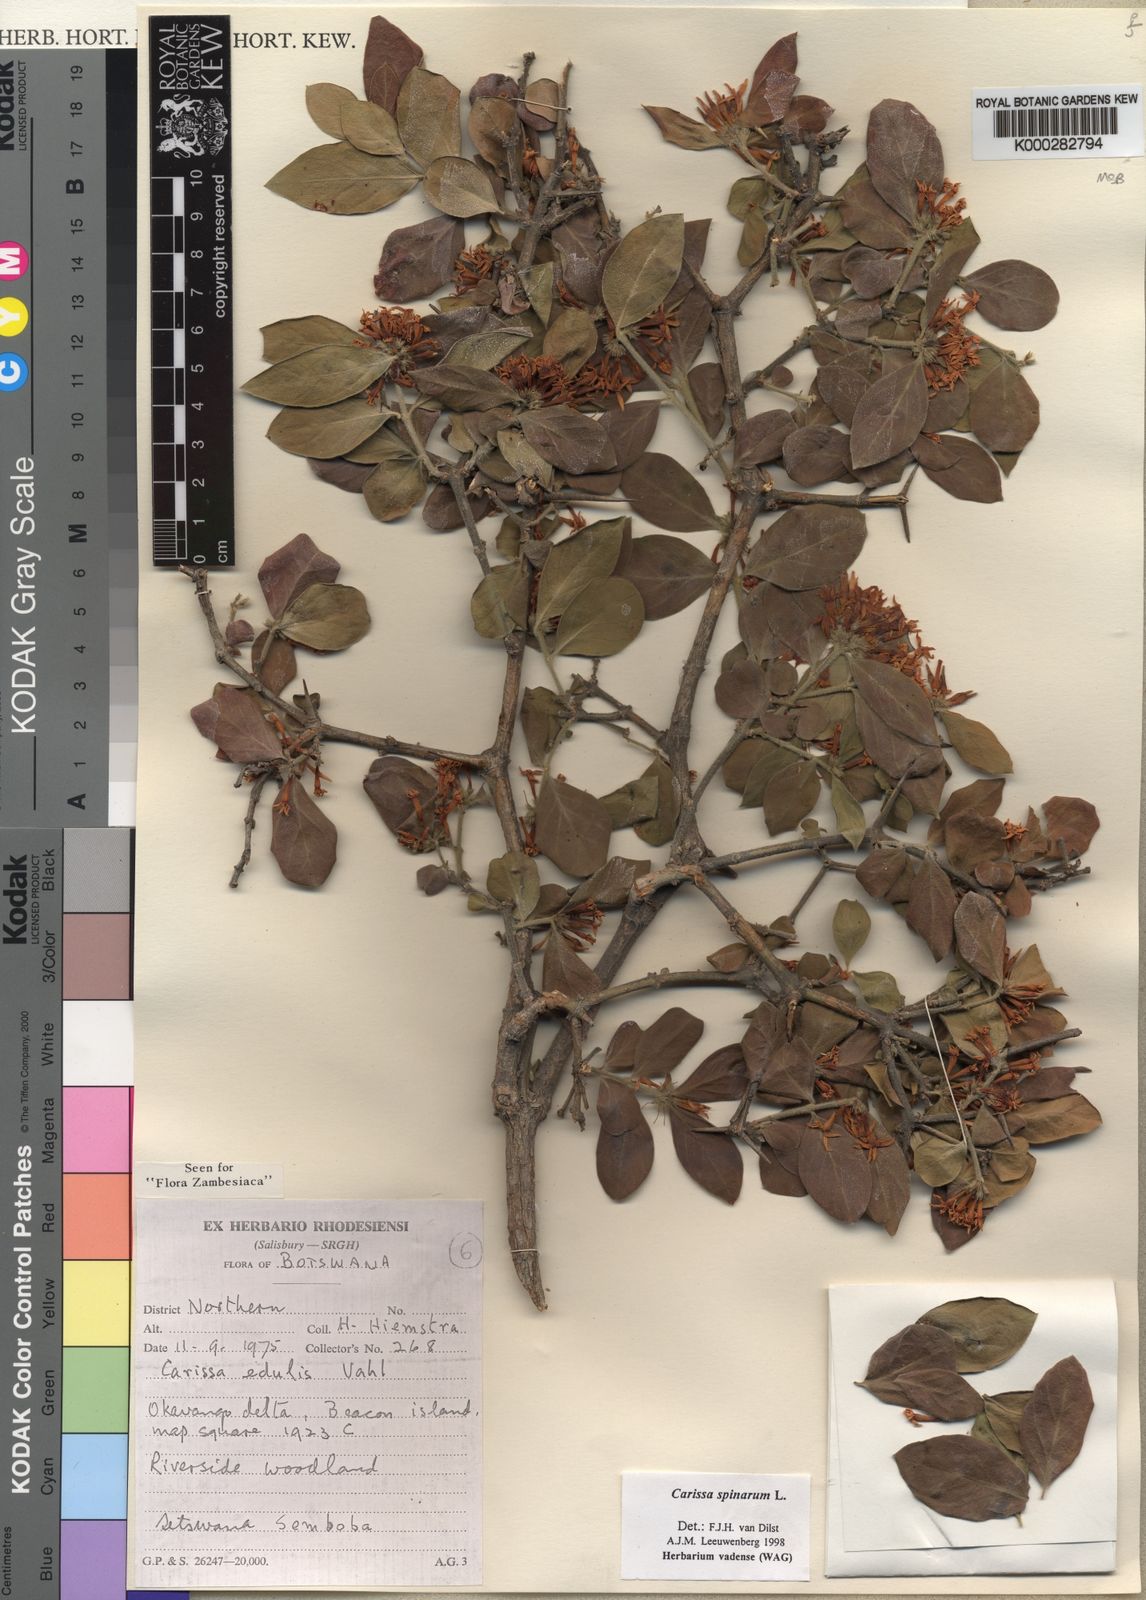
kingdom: Plantae
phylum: Tracheophyta
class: Magnoliopsida
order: Gentianales
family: Apocynaceae
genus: Carissa
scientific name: Carissa spinarum
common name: Egyptian carissa
